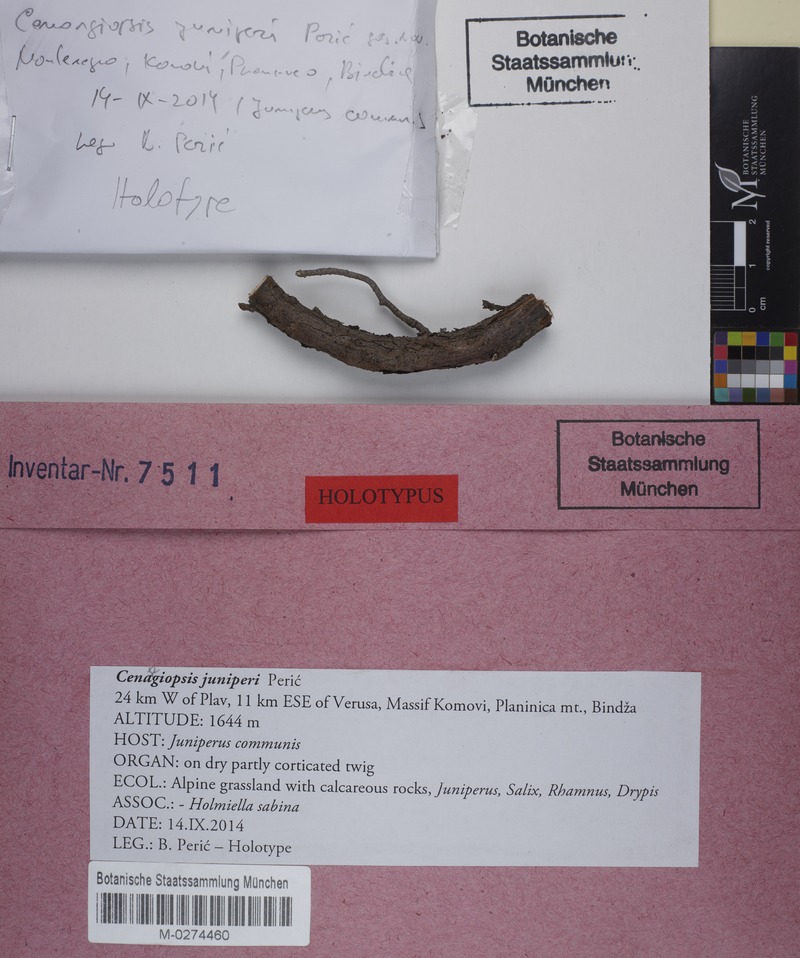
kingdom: Fungi
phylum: Ascomycota
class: Leotiomycetes
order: Helotiales
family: Cenangiaceae
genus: Cenangiopsis
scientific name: Cenangiopsis junipericola
